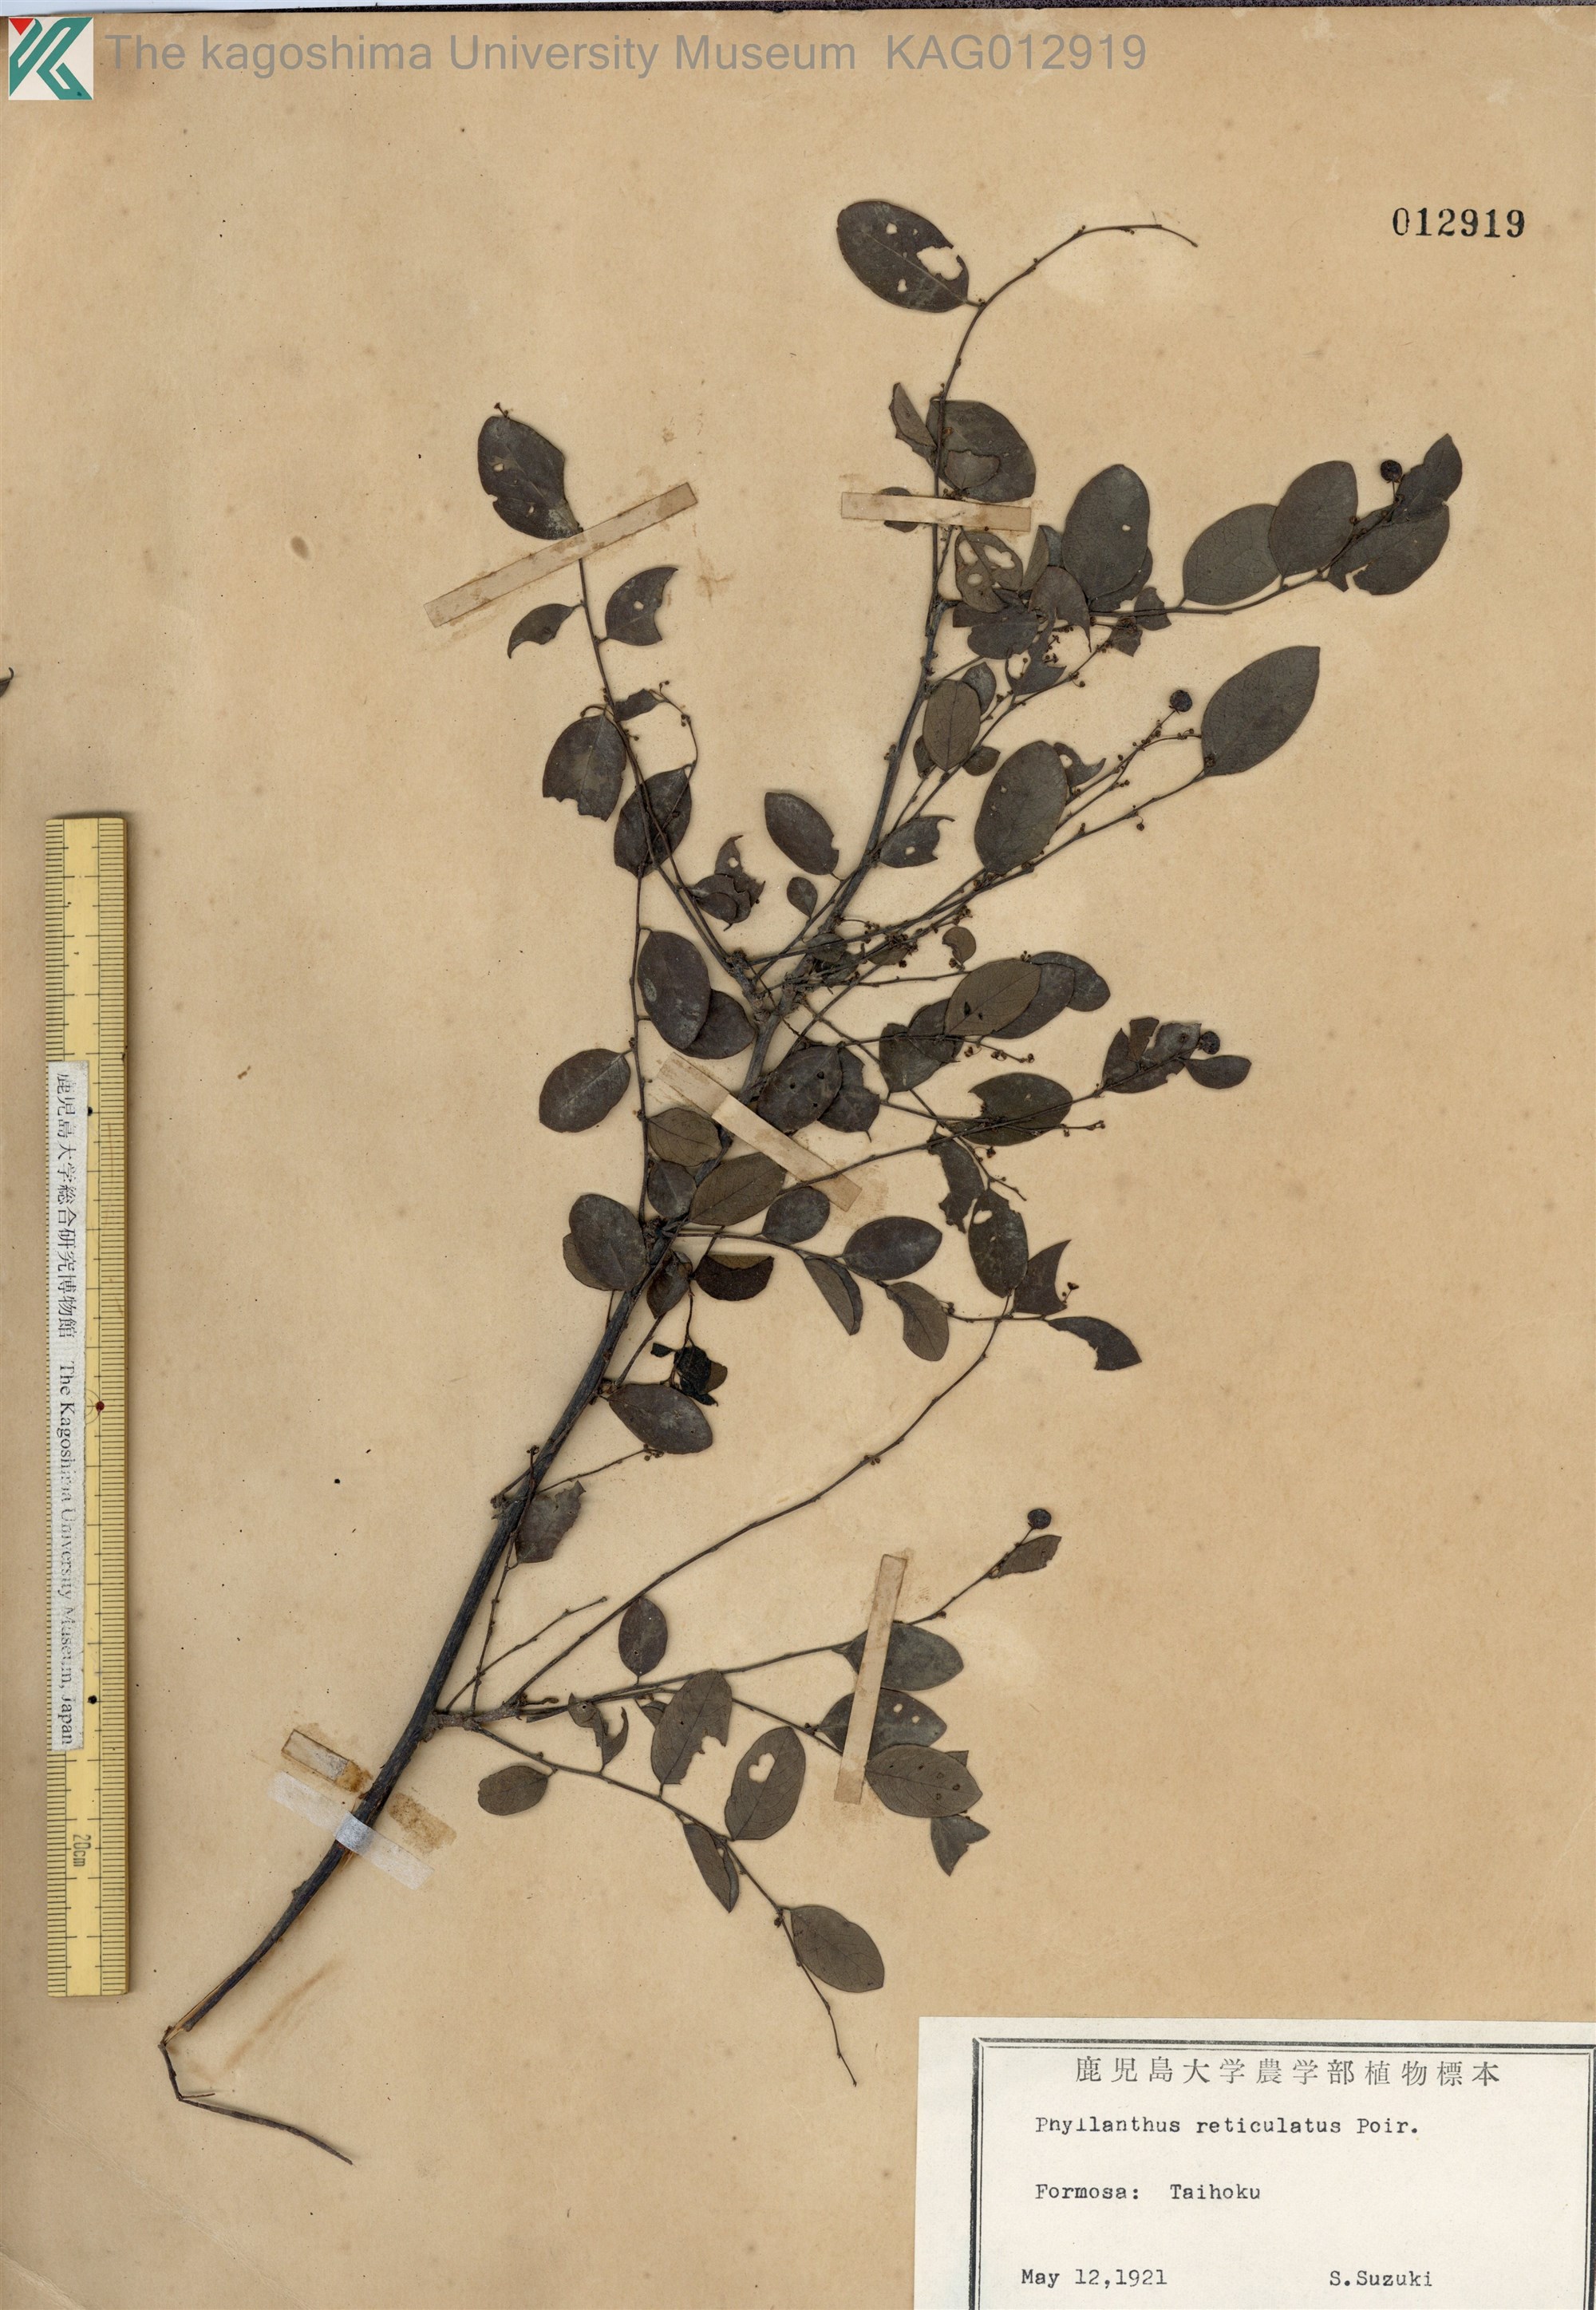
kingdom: Plantae
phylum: Tracheophyta
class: Magnoliopsida
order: Malpighiales
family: Phyllanthaceae
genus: Phyllanthus
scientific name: Phyllanthus reticulatus
